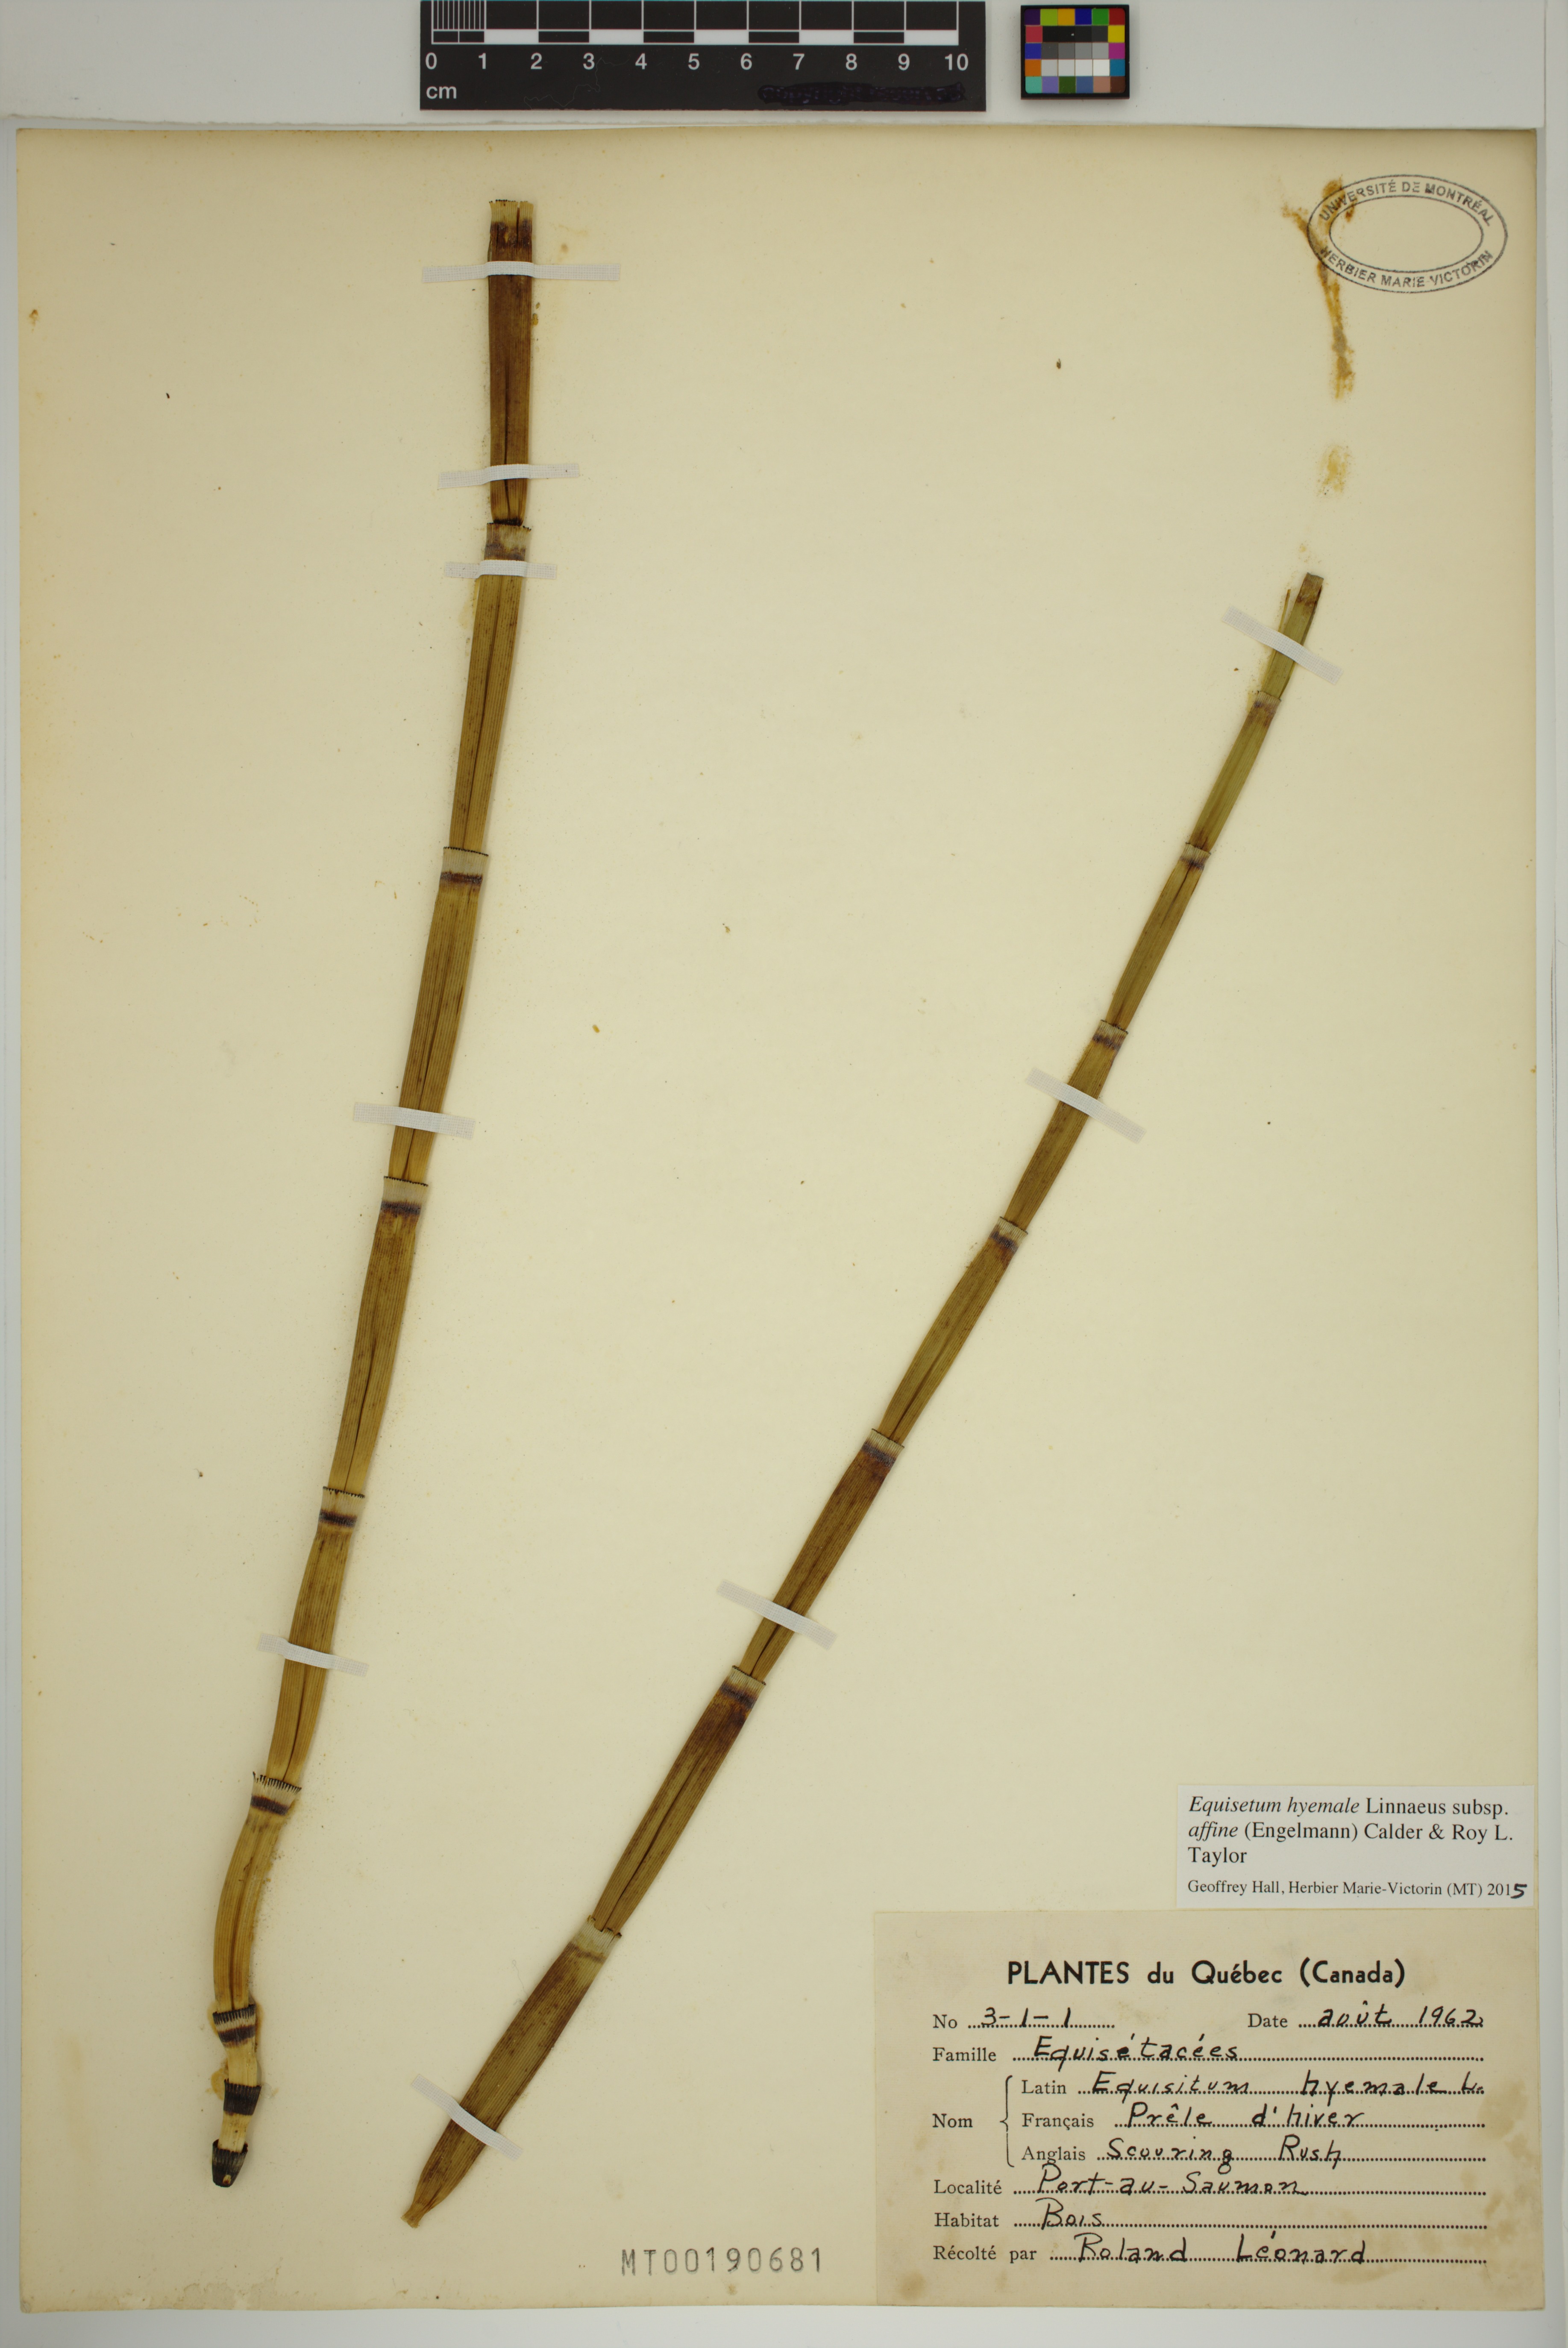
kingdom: Plantae
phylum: Tracheophyta
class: Polypodiopsida
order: Equisetales
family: Equisetaceae
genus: Equisetum
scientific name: Equisetum praealtum
